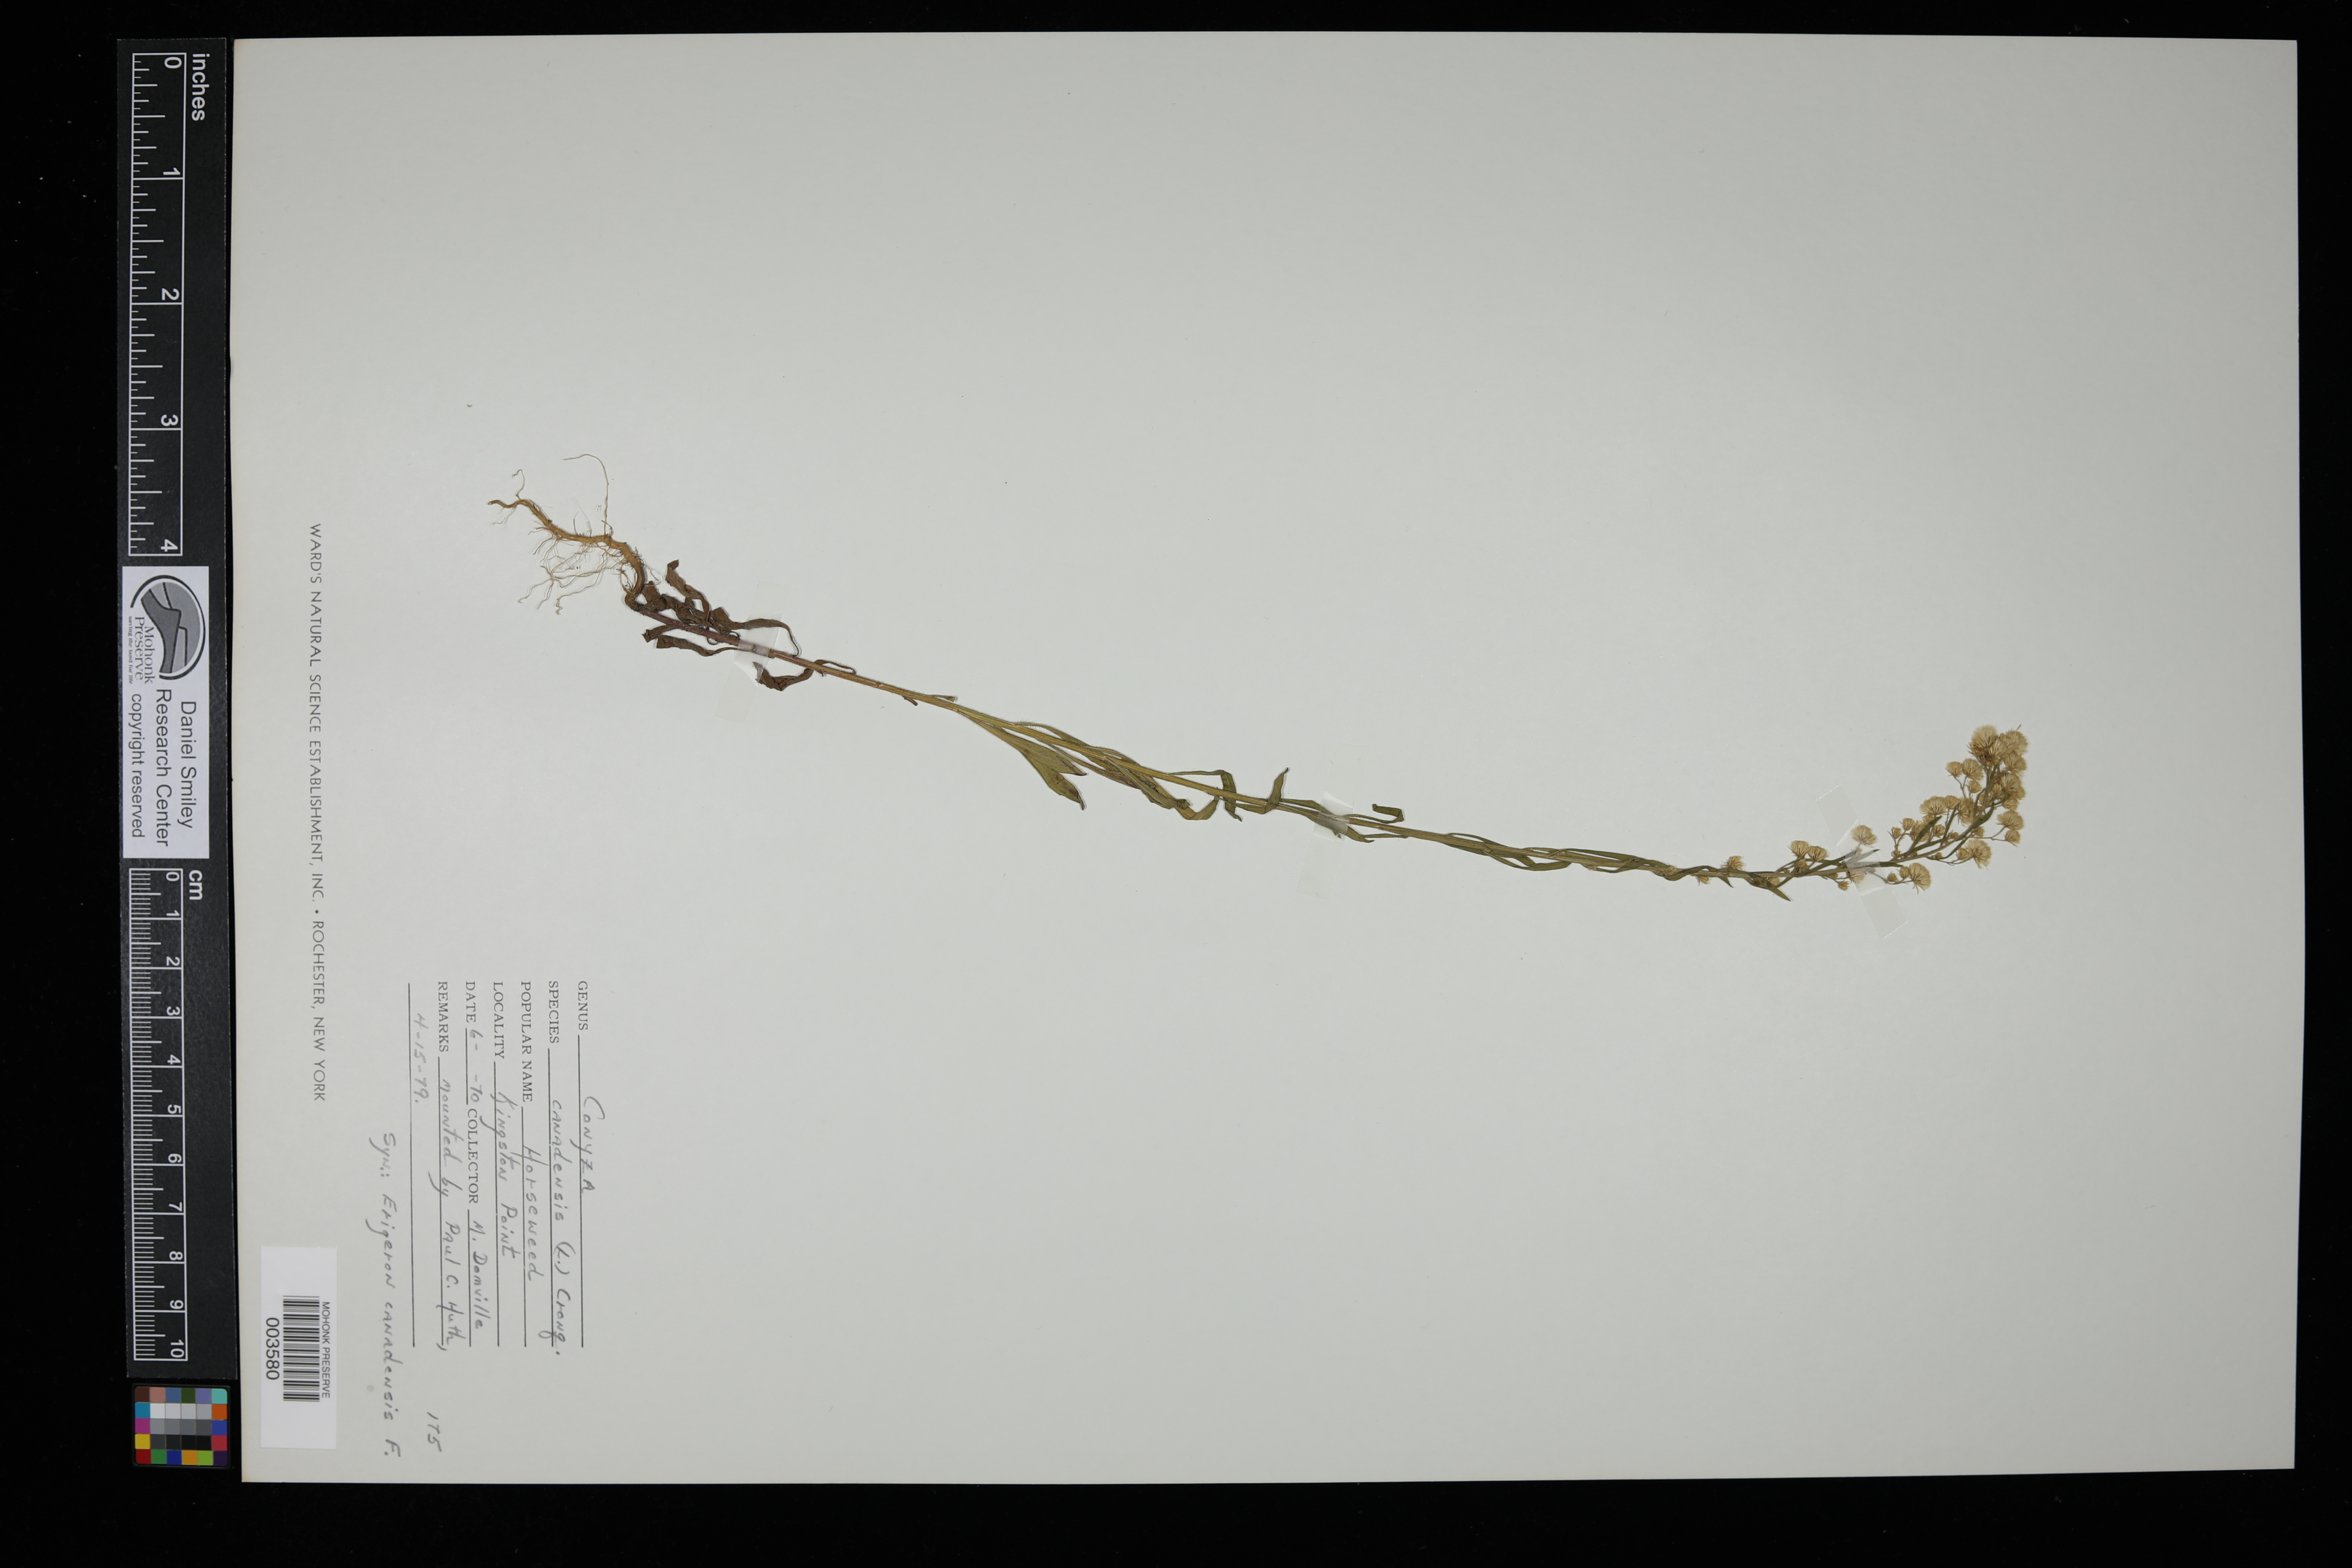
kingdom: Plantae
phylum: Tracheophyta
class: Magnoliopsida
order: Asterales
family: Asteraceae
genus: Erigeron
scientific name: Erigeron canadensis
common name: Canadian fleabane
